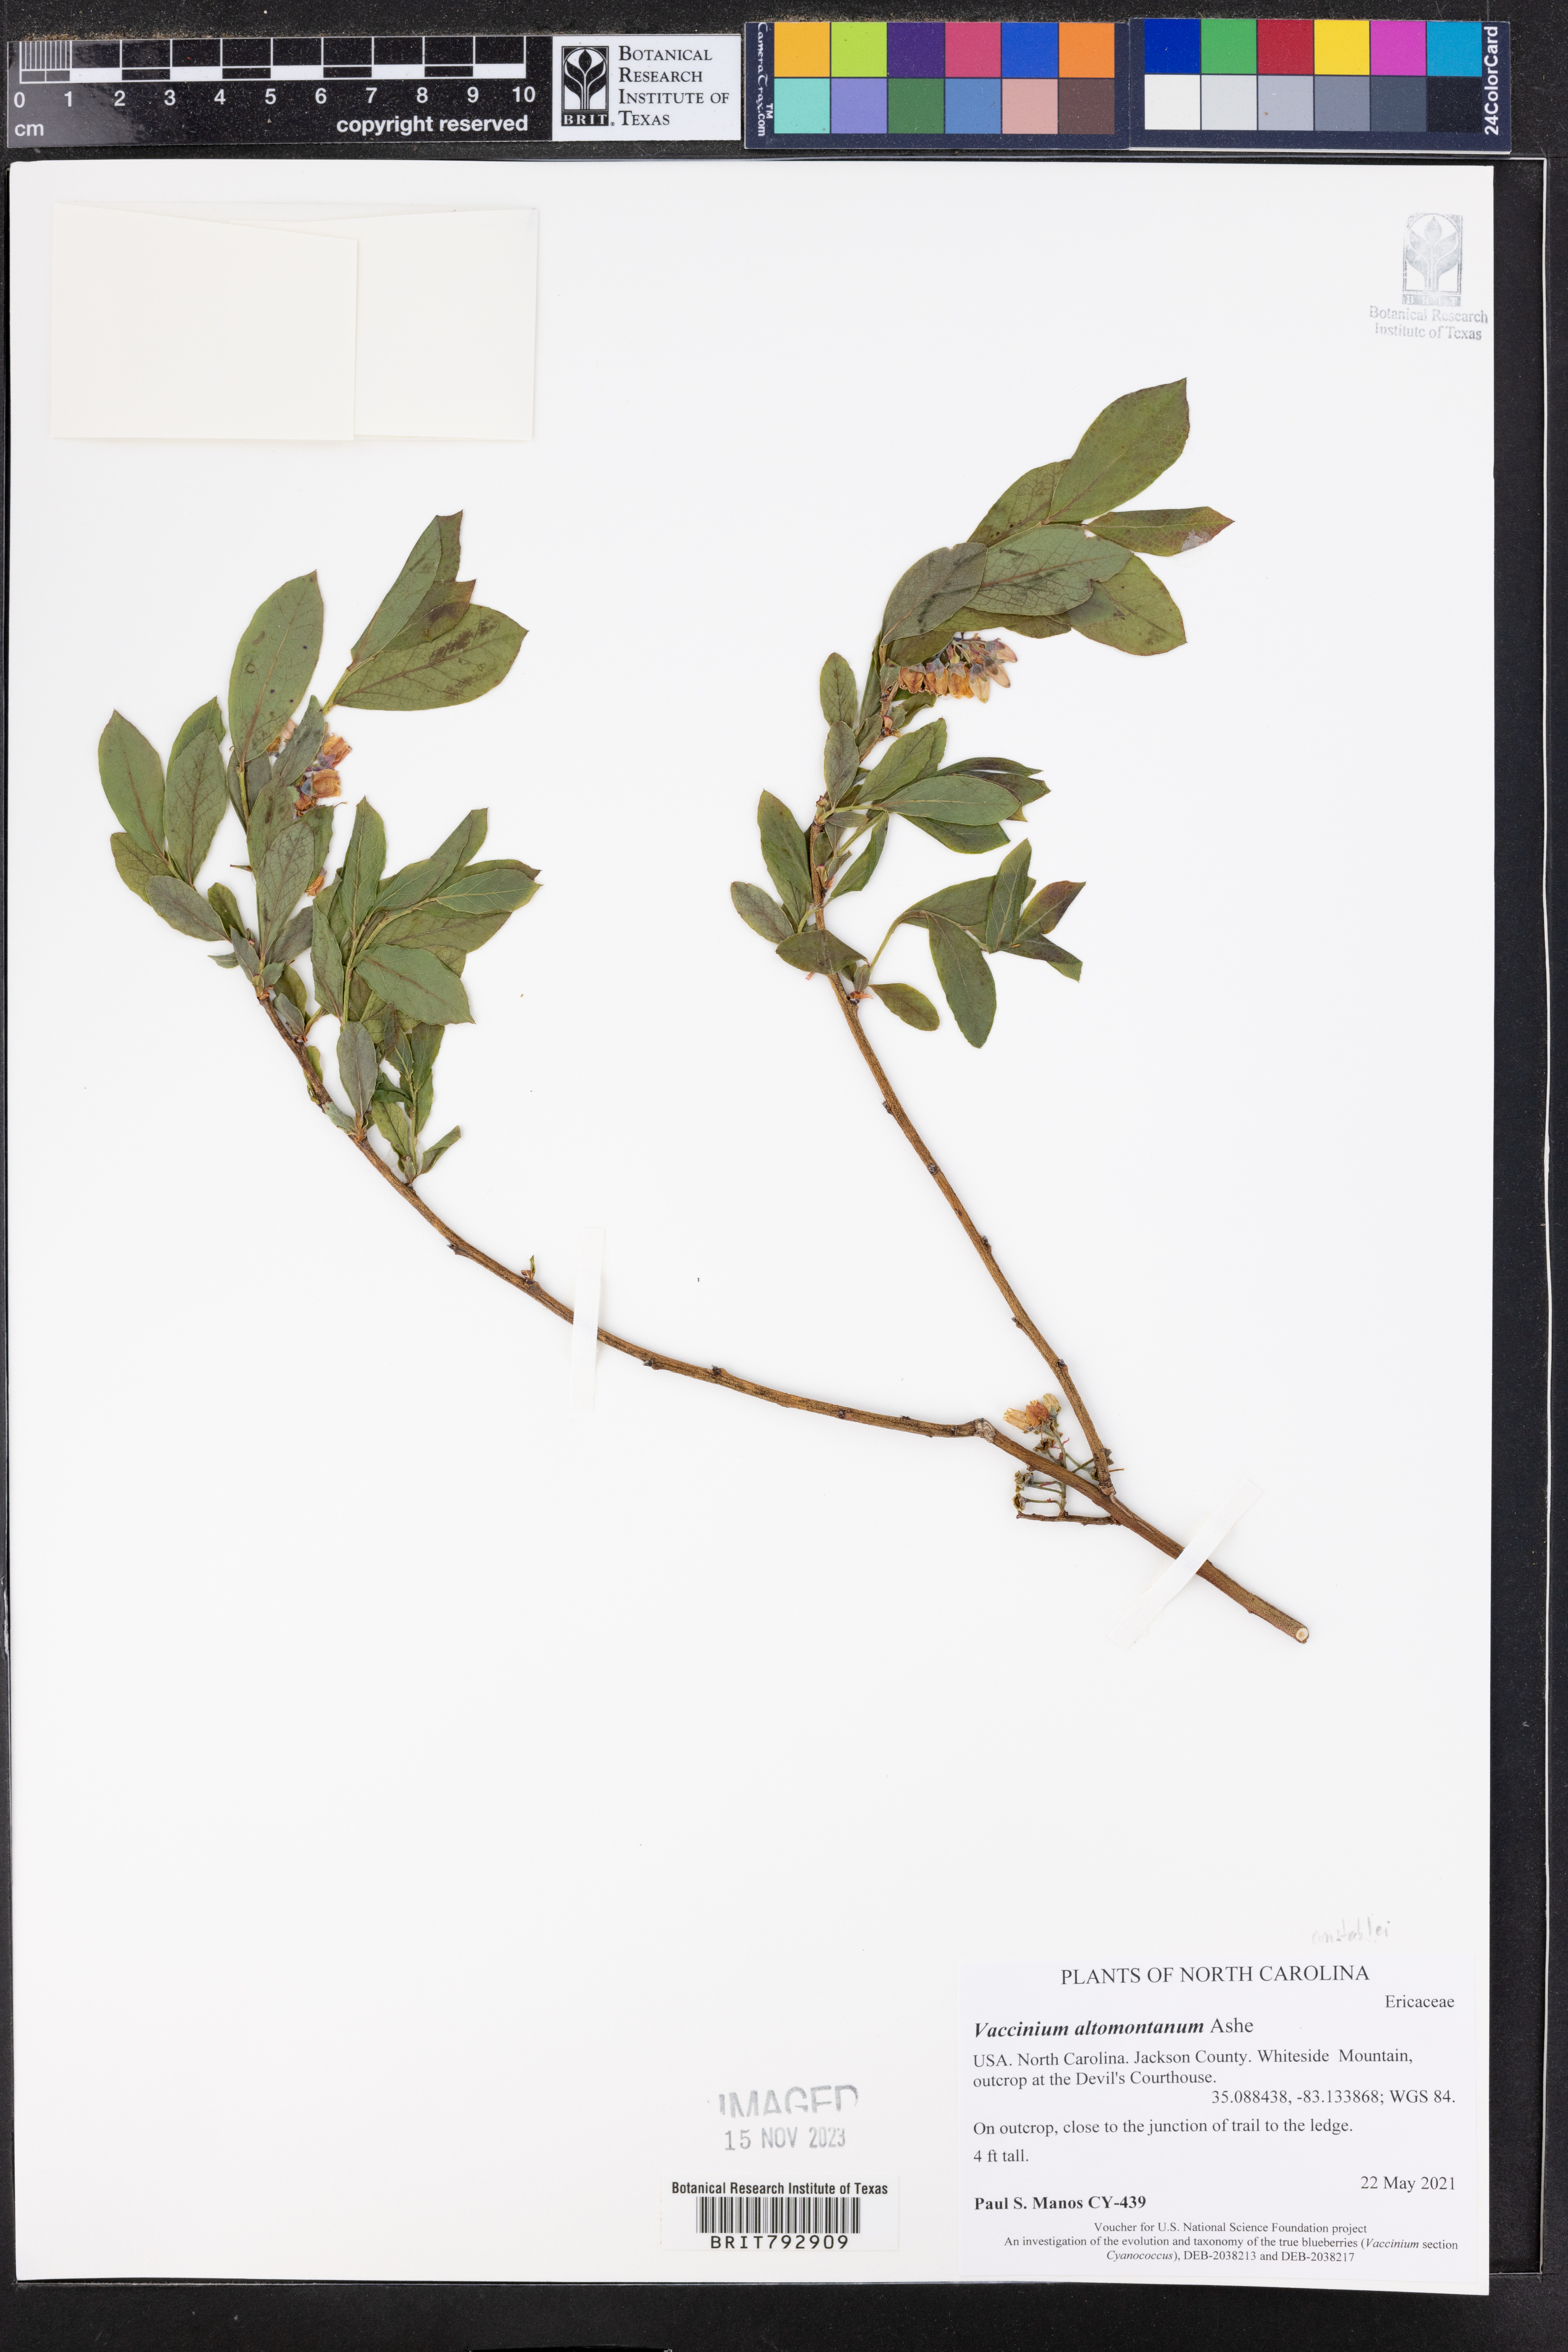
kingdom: Plantae
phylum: Tracheophyta
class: Magnoliopsida
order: Ericales
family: Ericaceae
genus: Vaccinium
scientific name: Vaccinium pallidum
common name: Blue ridge blueberry
